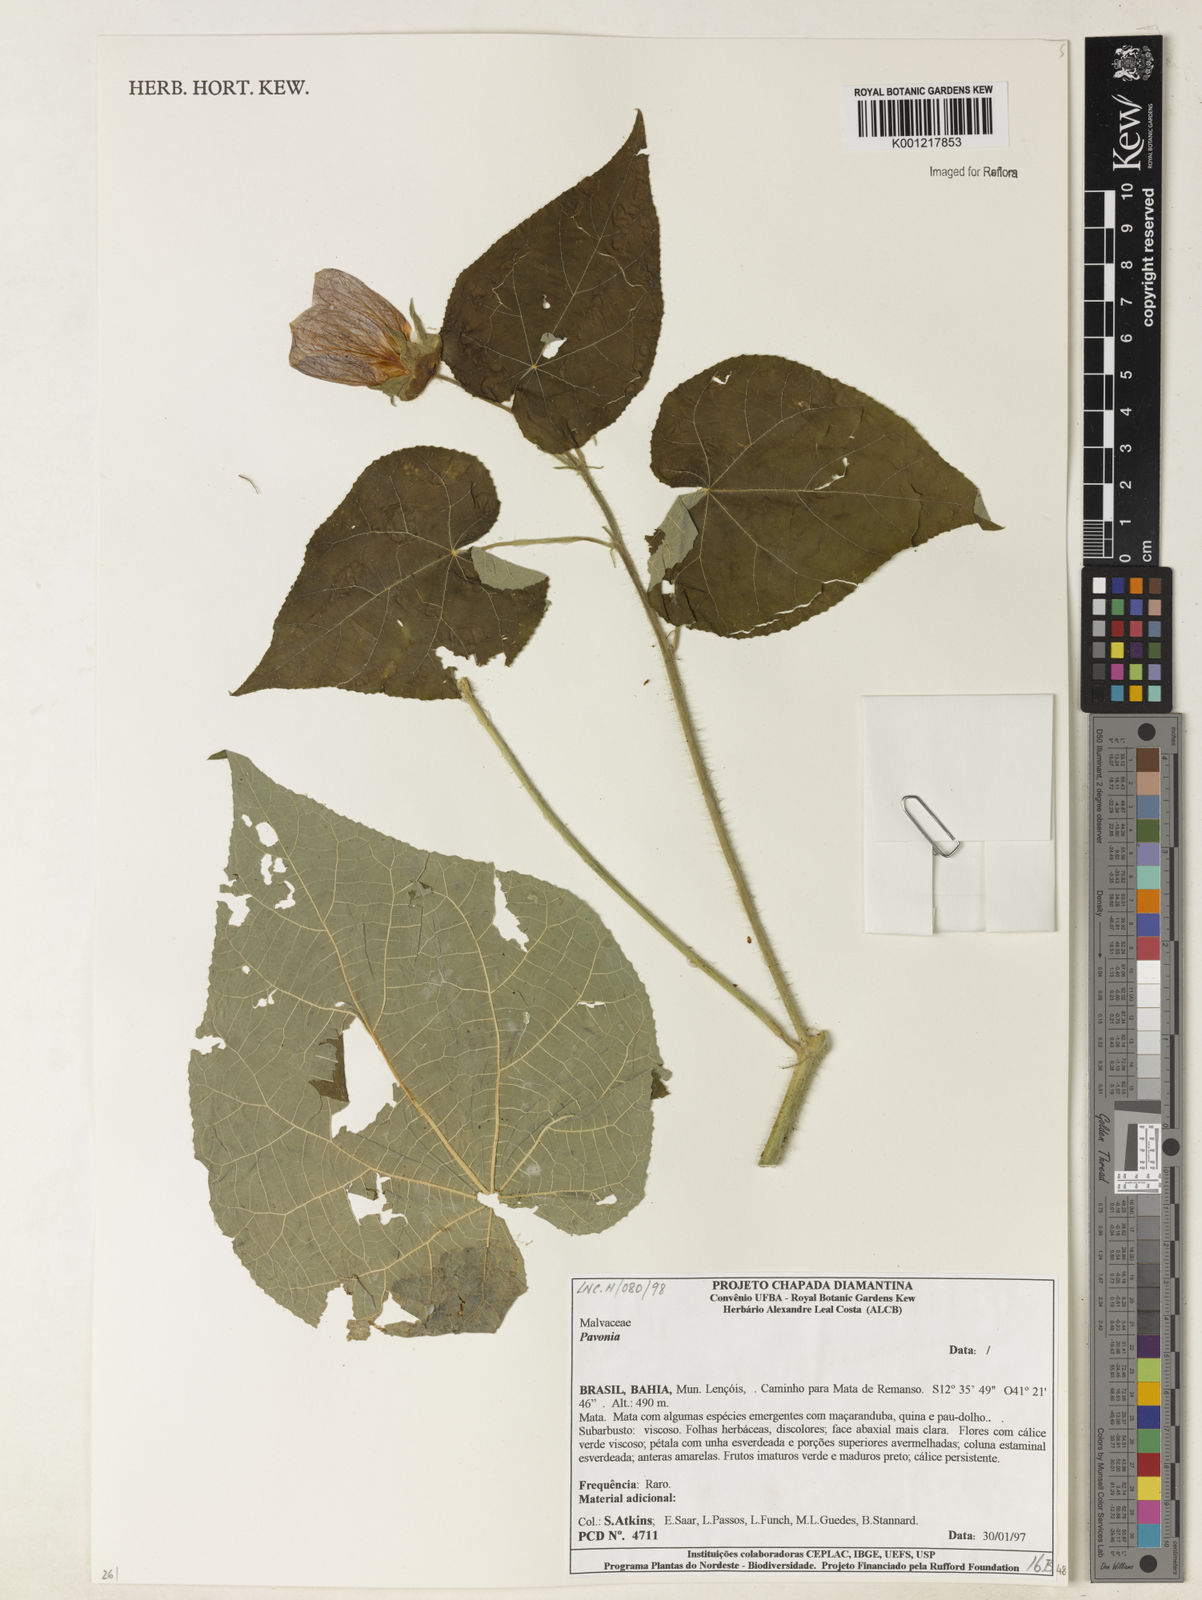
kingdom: Plantae
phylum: Tracheophyta
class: Magnoliopsida
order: Malvales
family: Malvaceae
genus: Pavonia
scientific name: Pavonia
